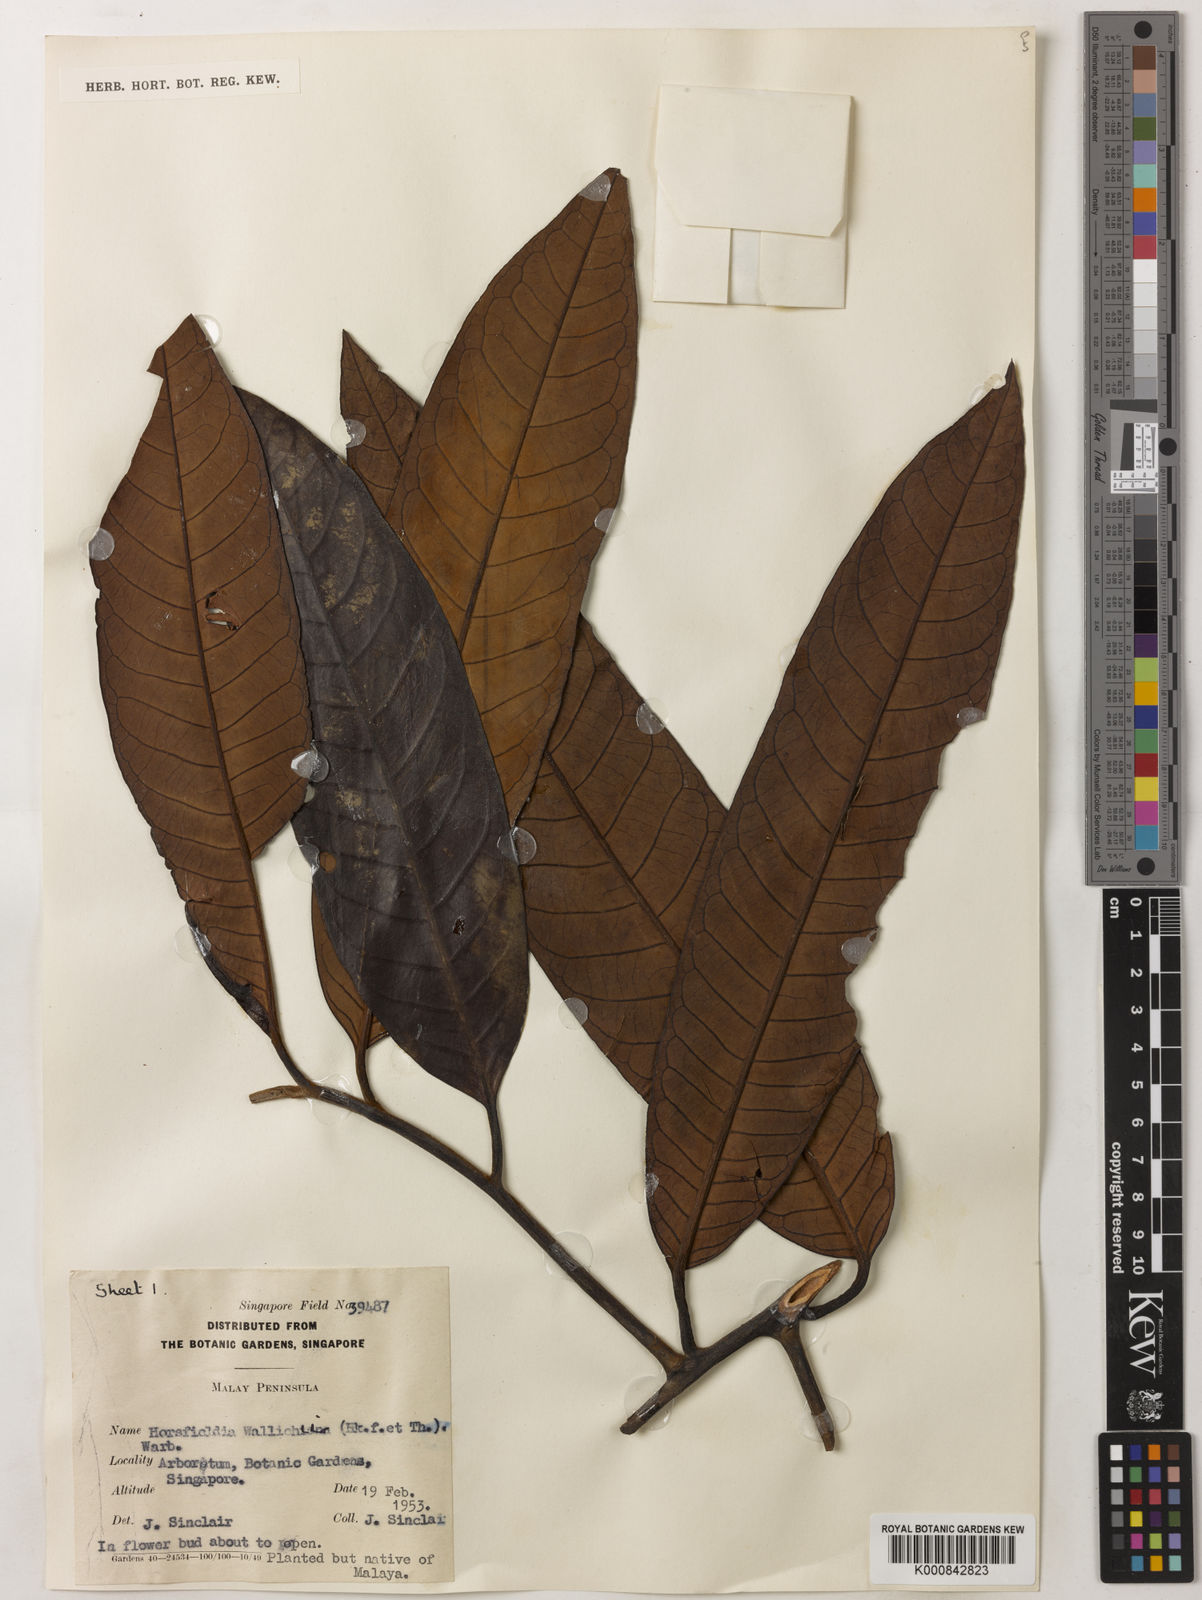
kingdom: Plantae
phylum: Tracheophyta
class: Magnoliopsida
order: Magnoliales
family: Myristicaceae
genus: Horsfieldia
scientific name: Horsfieldia wallichii
